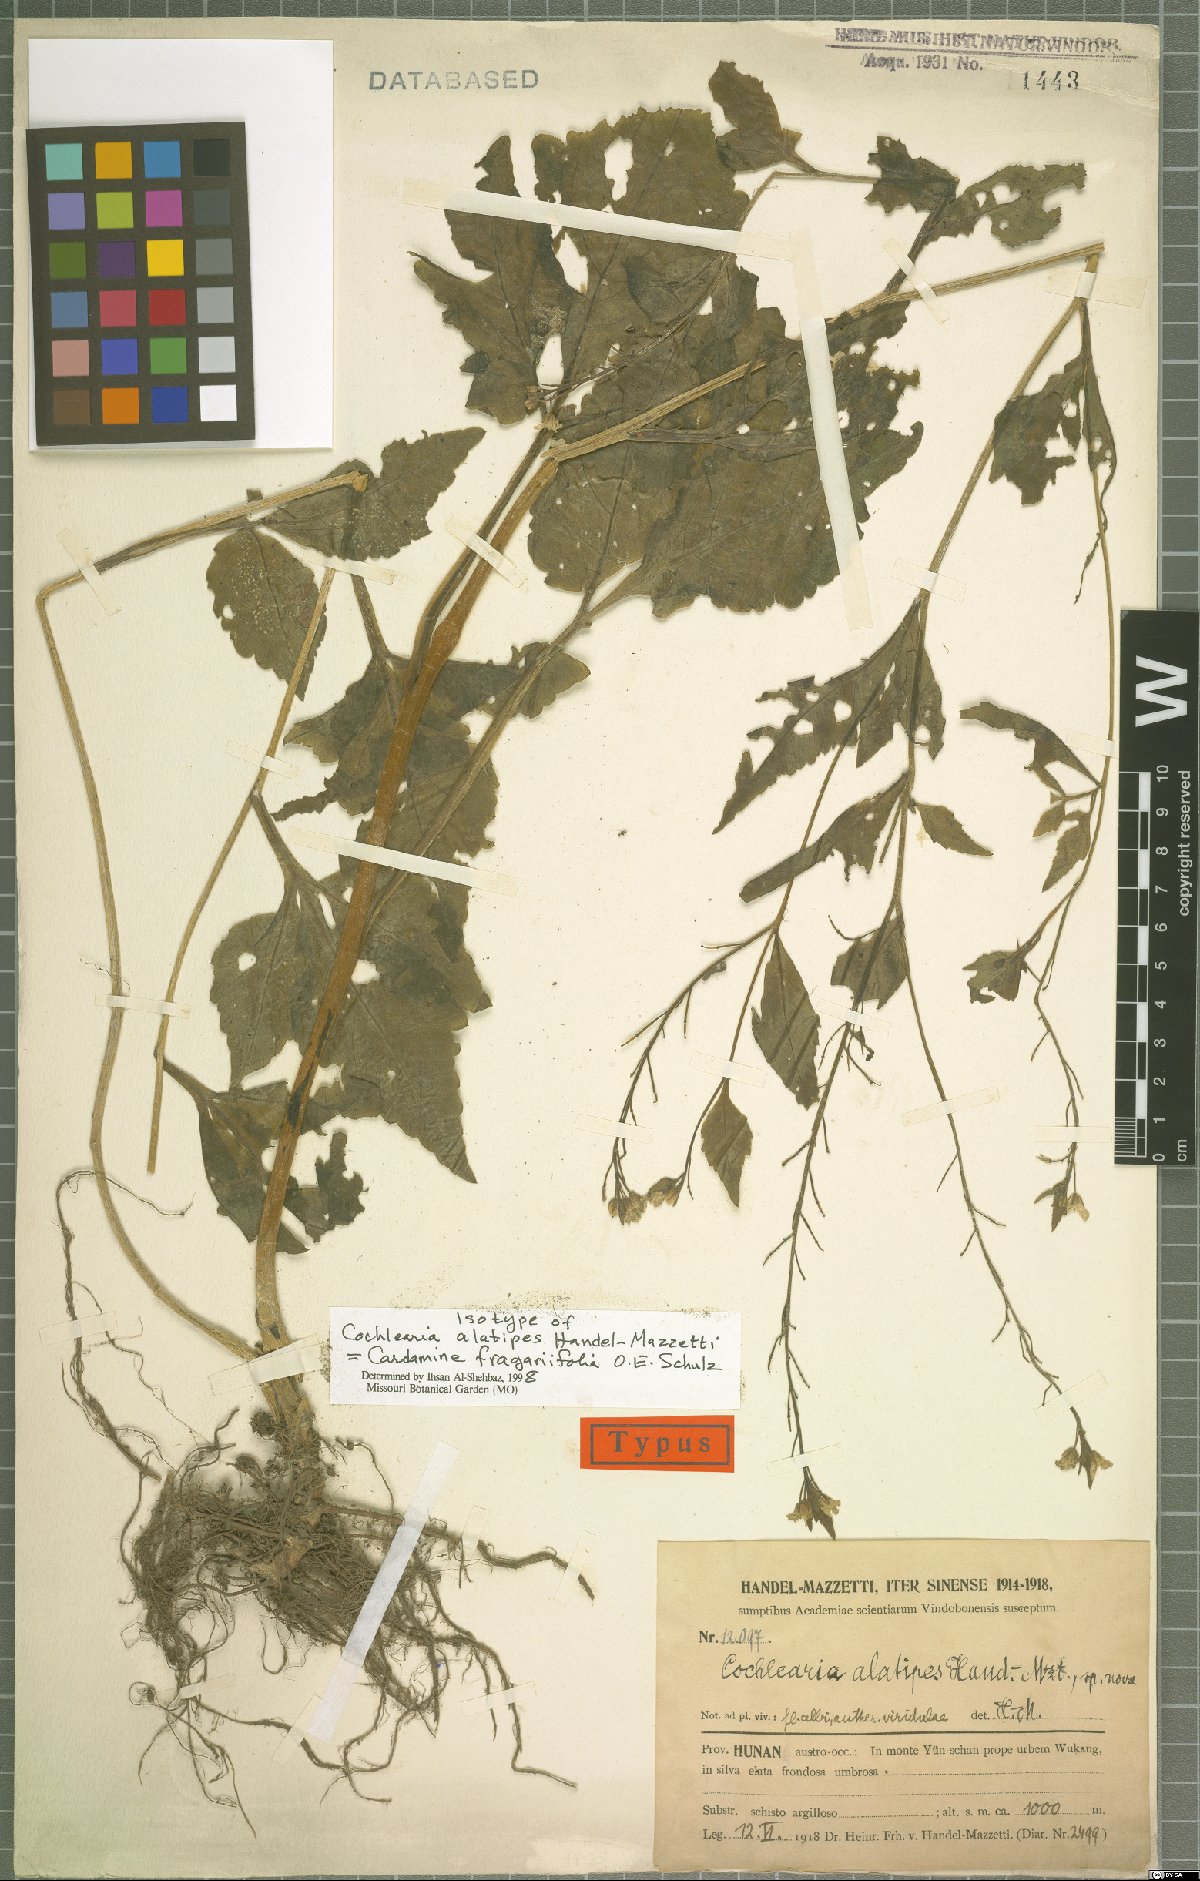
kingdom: Plantae
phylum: Tracheophyta
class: Magnoliopsida
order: Brassicales
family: Brassicaceae
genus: Cardamine
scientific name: Cardamine cheotaiyienii
